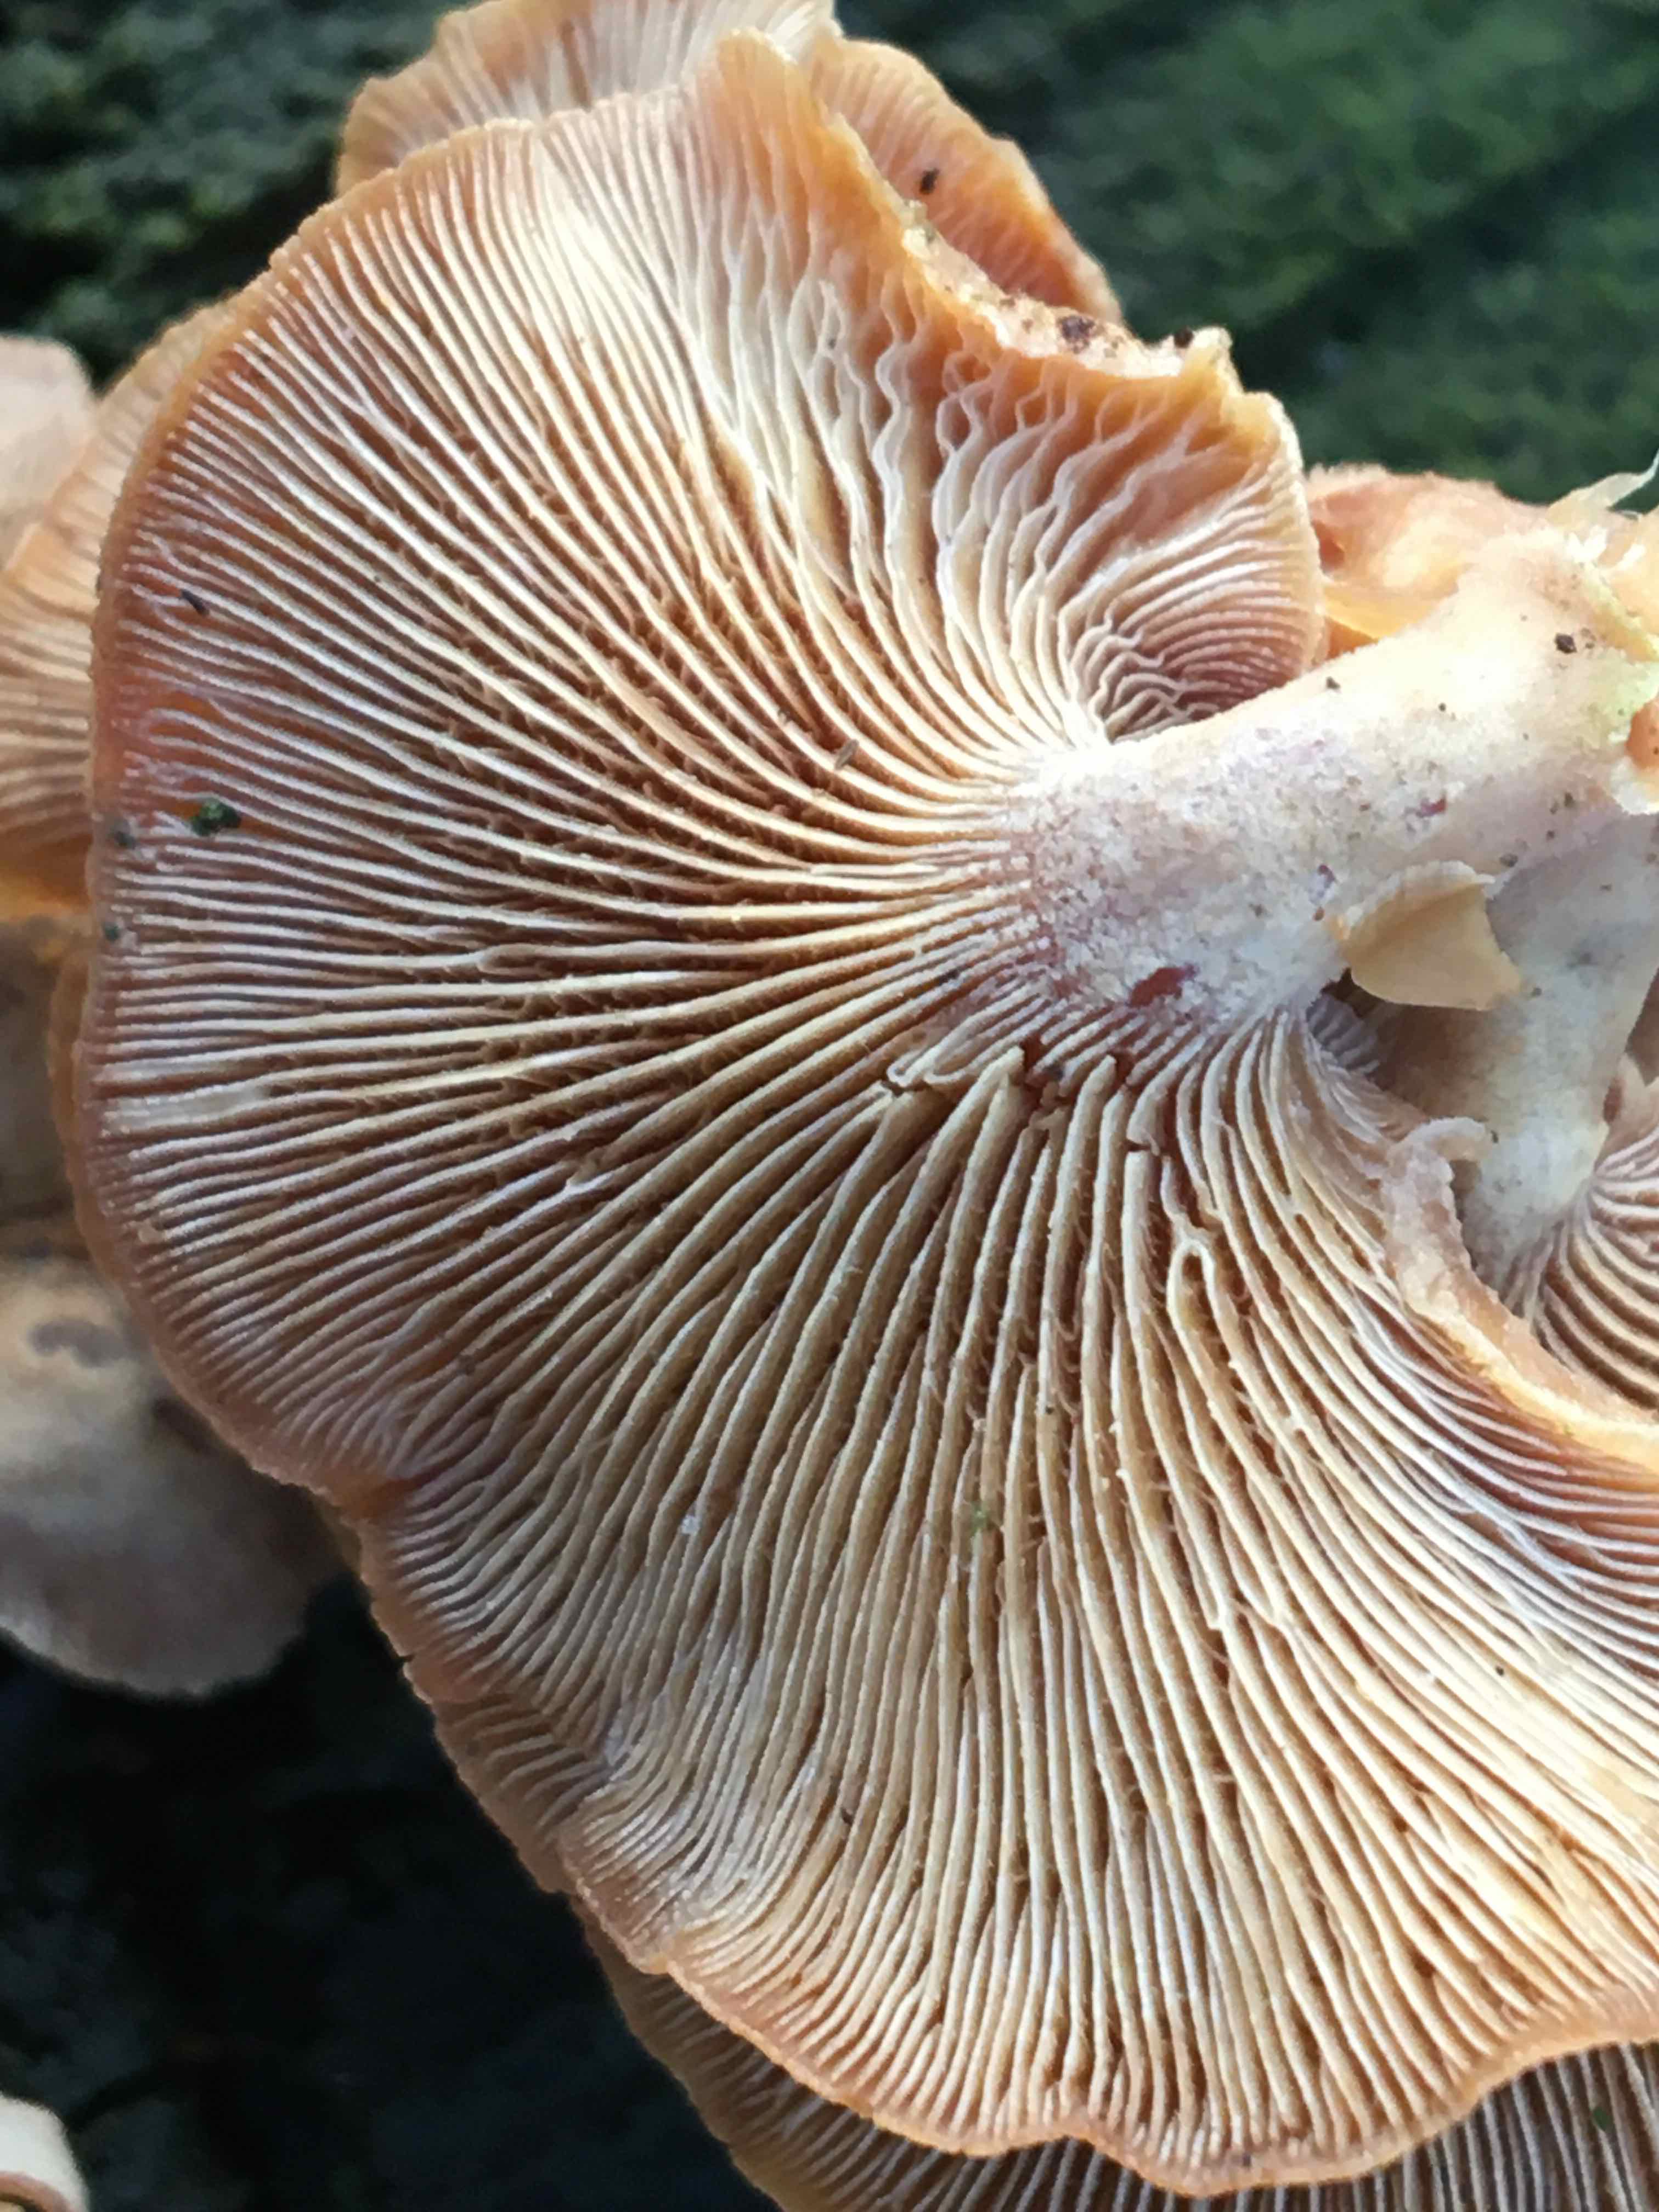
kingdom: Fungi
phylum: Basidiomycota
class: Agaricomycetes
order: Agaricales
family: Mycenaceae
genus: Panellus
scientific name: Panellus stipticus
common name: kliddet epaulethat
